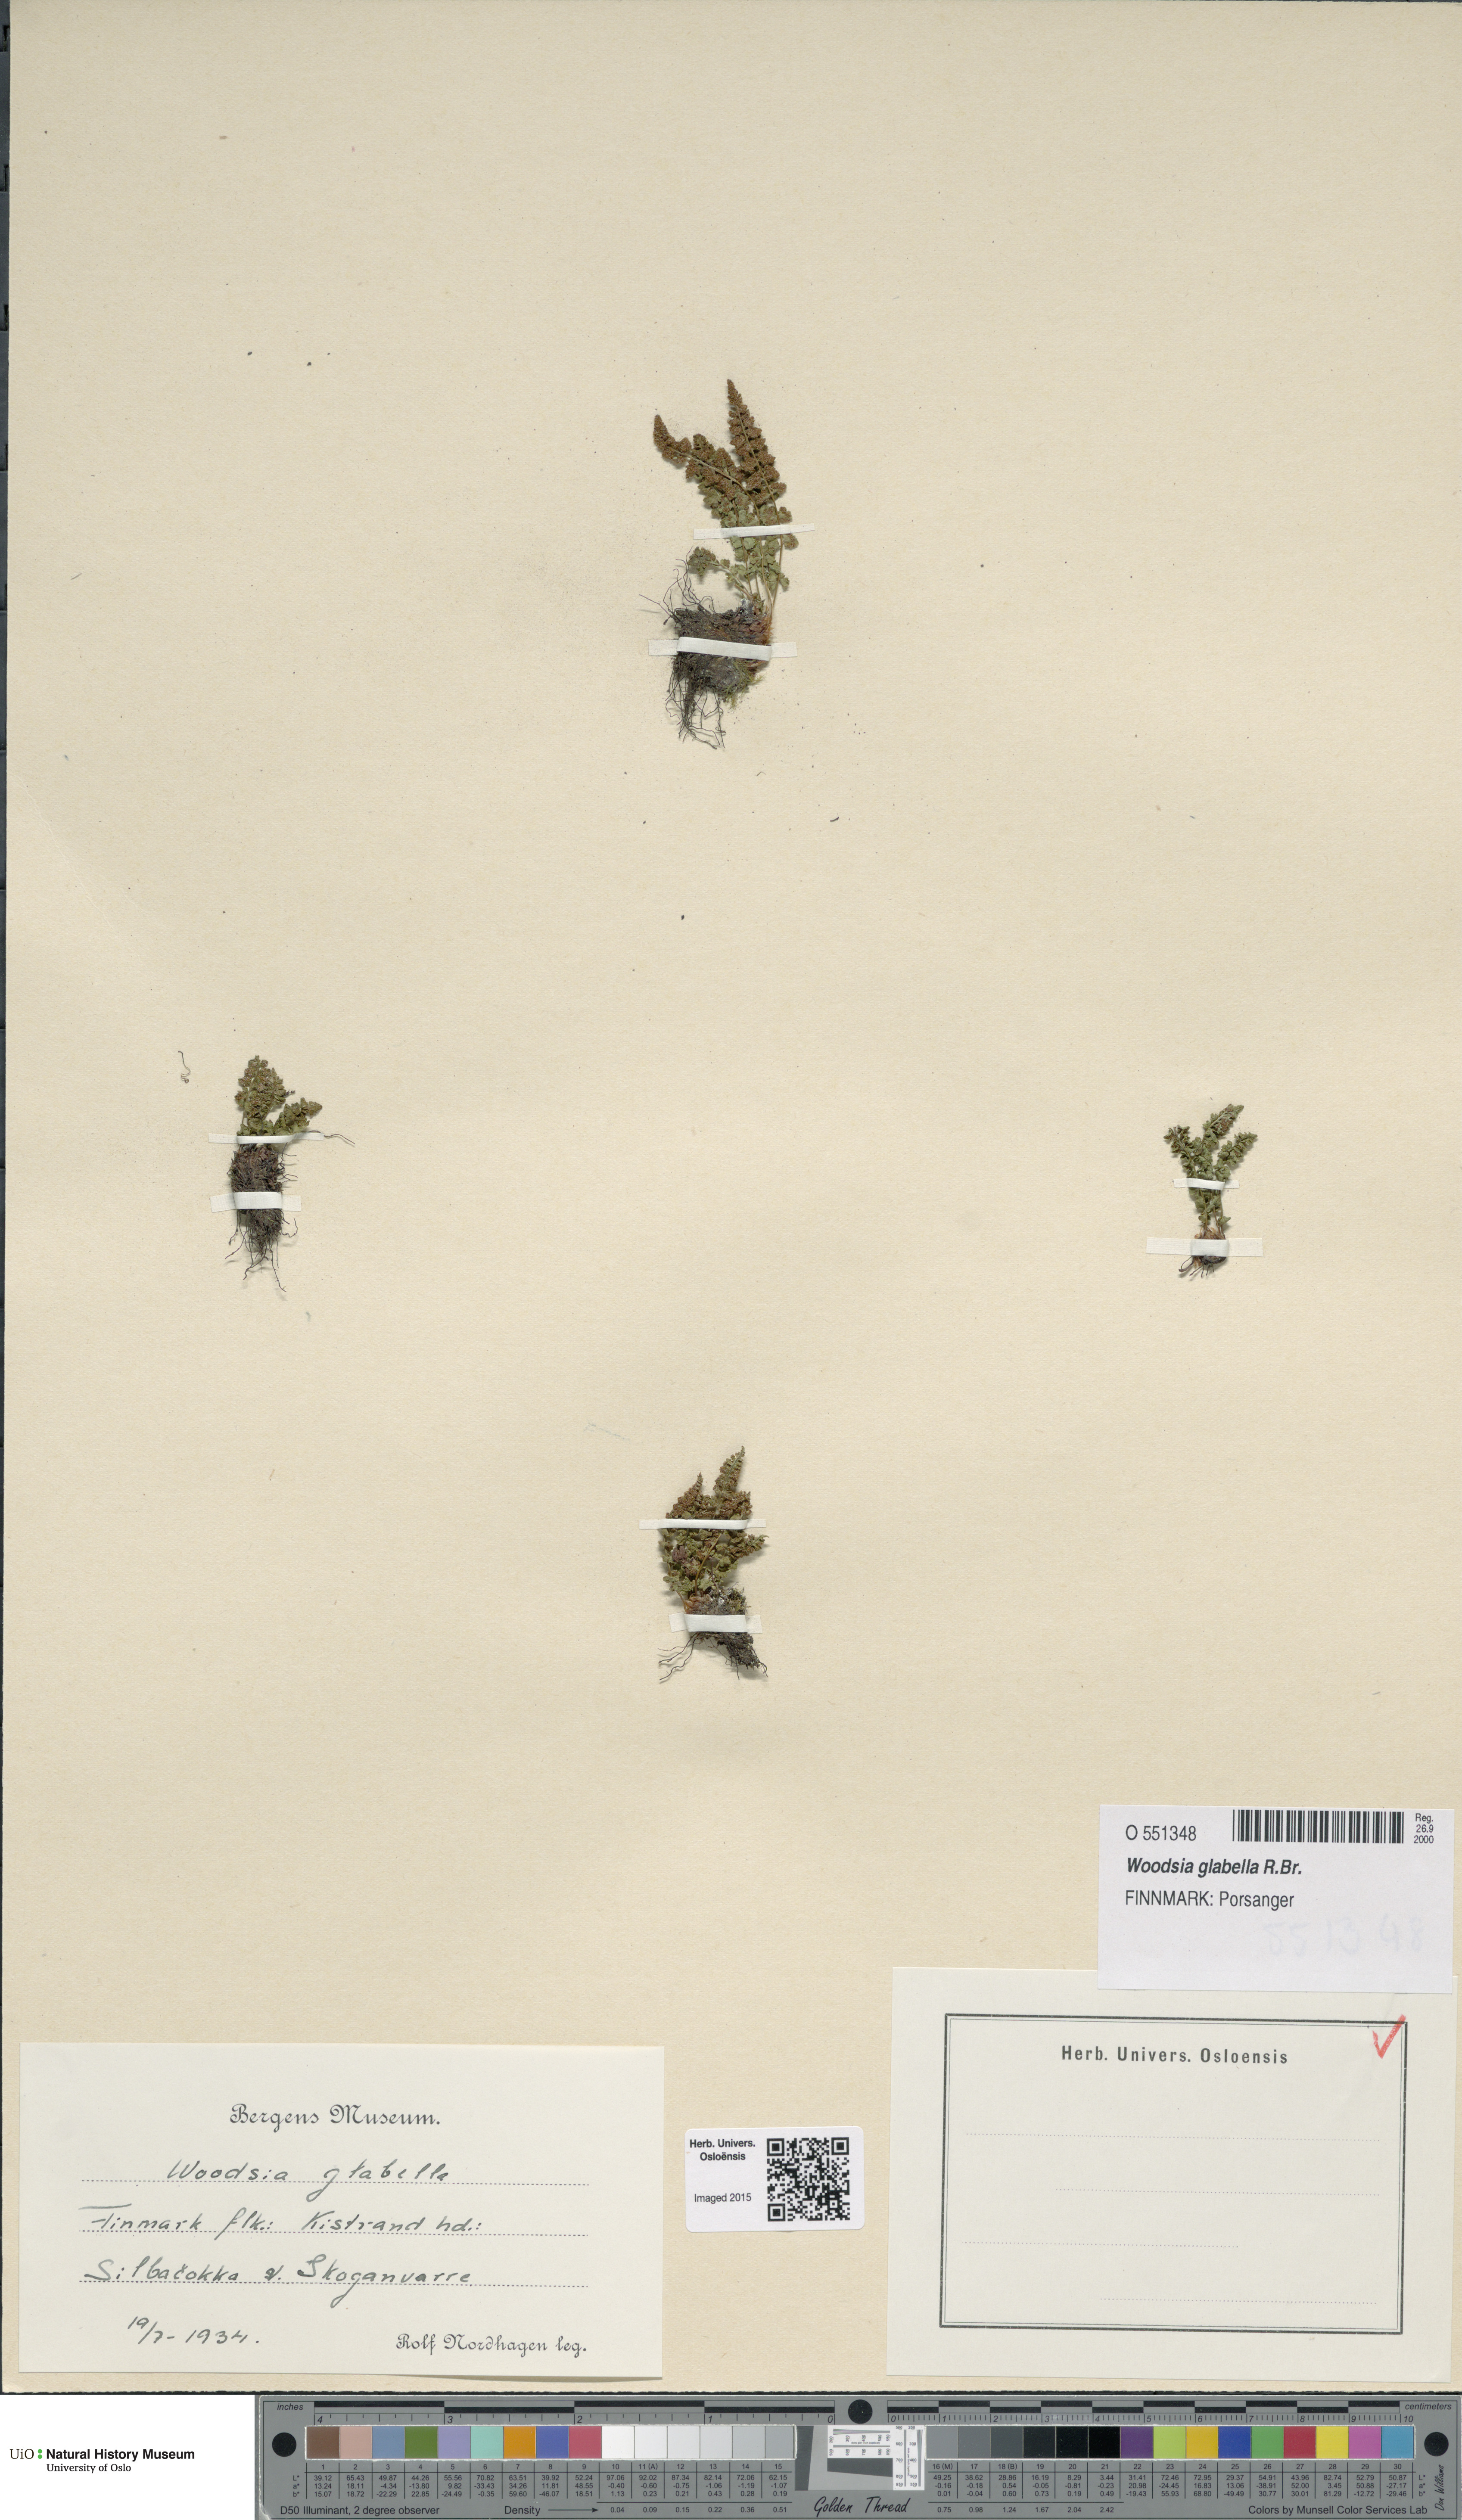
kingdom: Plantae
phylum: Tracheophyta
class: Polypodiopsida
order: Polypodiales
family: Woodsiaceae
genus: Woodsia
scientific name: Woodsia glabella
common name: Smooth woodsia
